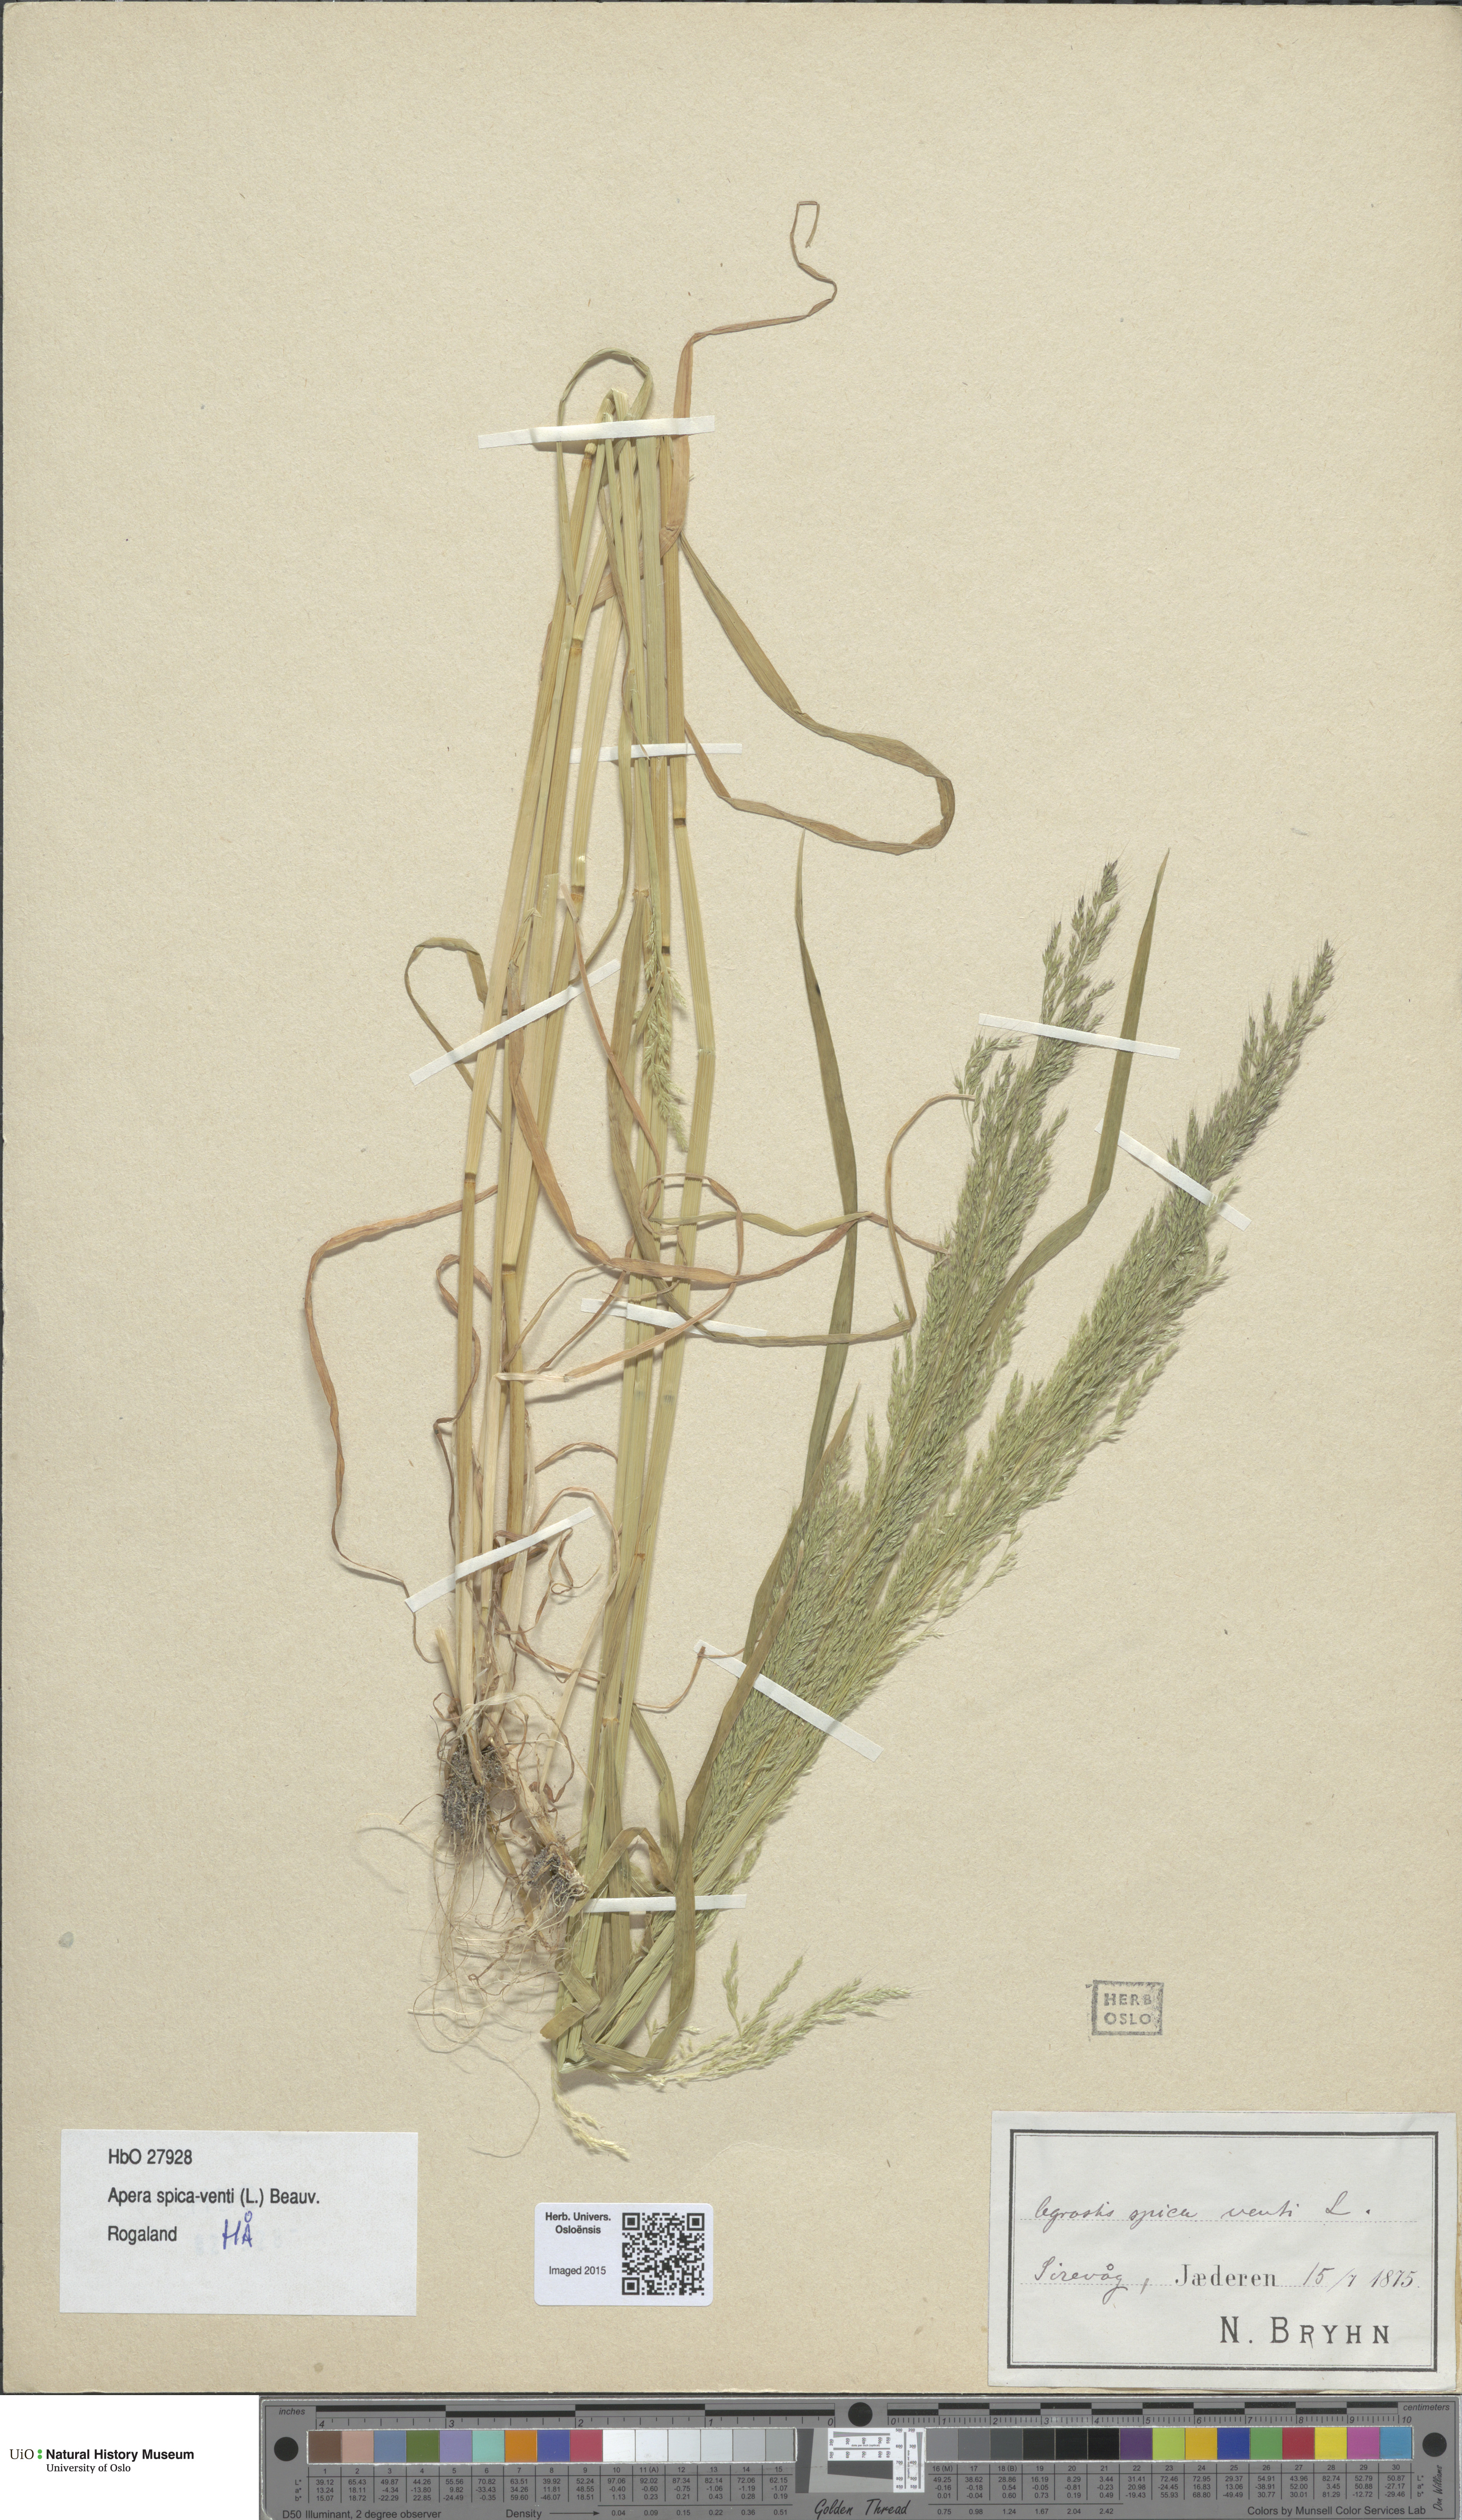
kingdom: Plantae
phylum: Tracheophyta
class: Liliopsida
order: Poales
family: Poaceae
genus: Apera
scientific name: Apera spica-venti
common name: Loose silky-bent
